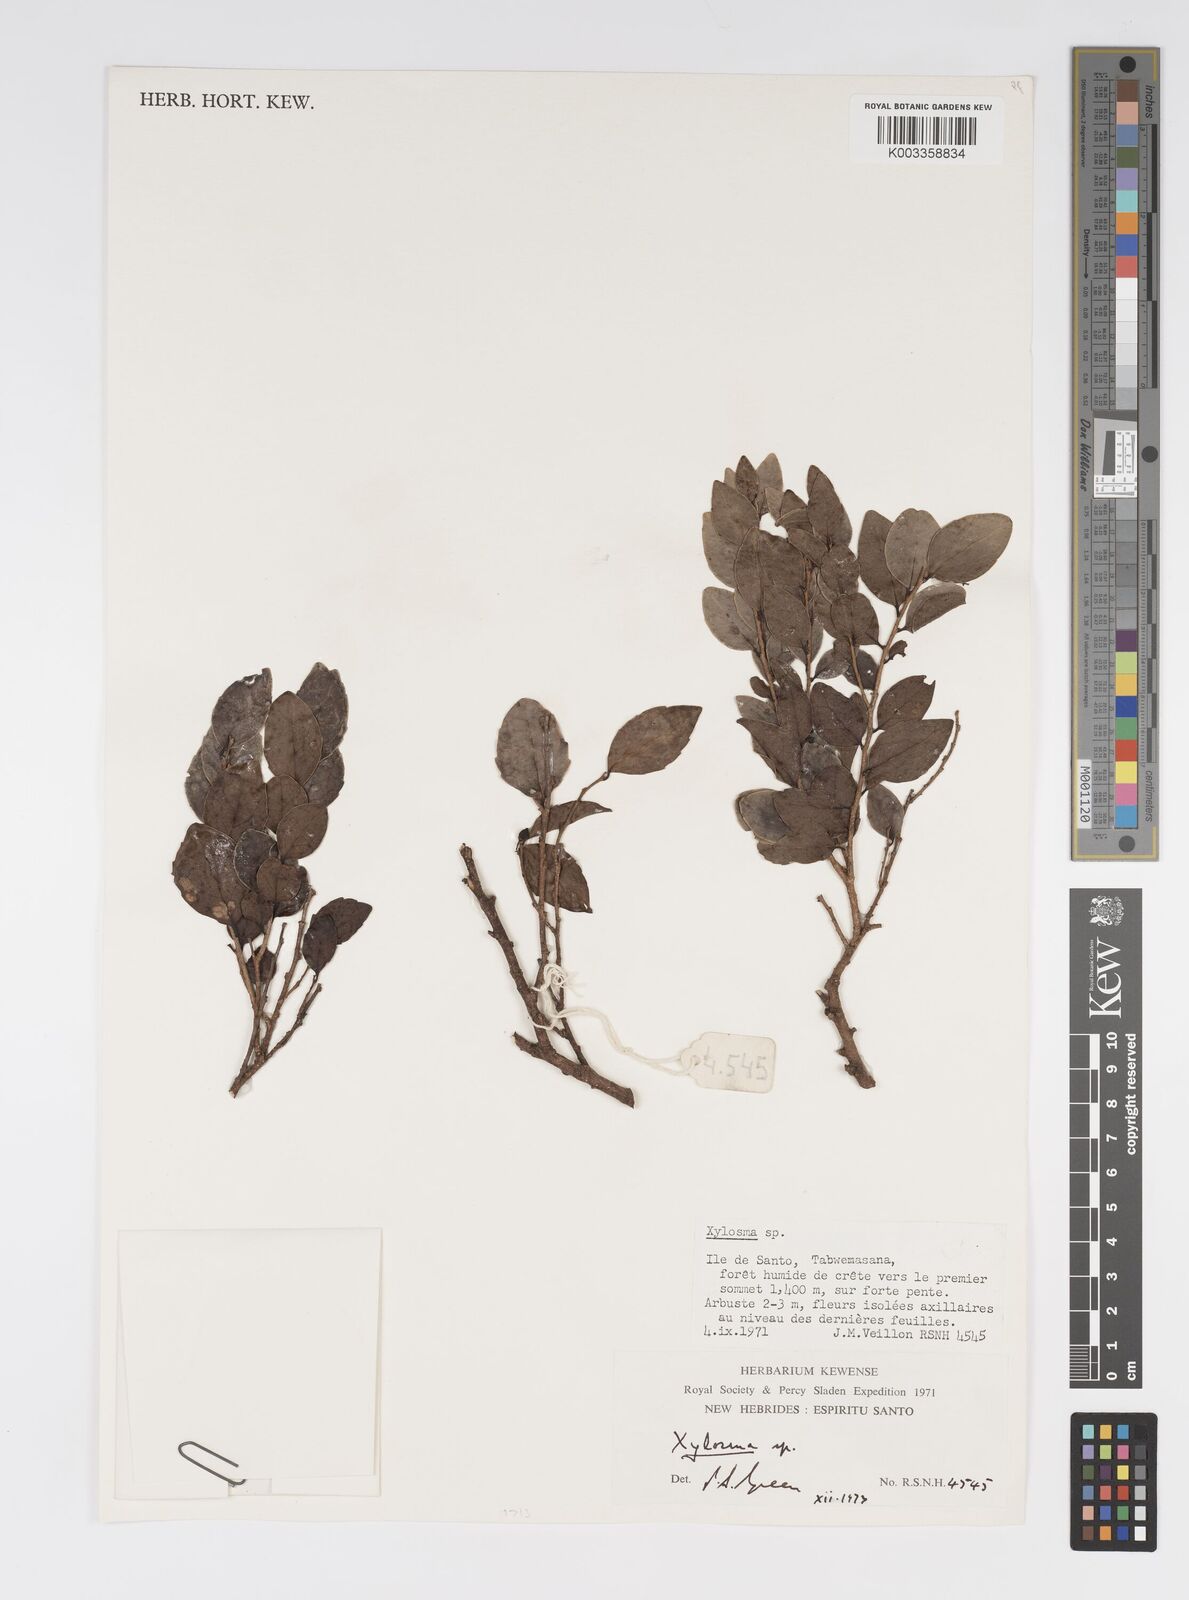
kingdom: Plantae
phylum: Tracheophyta
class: Magnoliopsida
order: Malpighiales
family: Salicaceae
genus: Xylosma
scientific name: Xylosma
